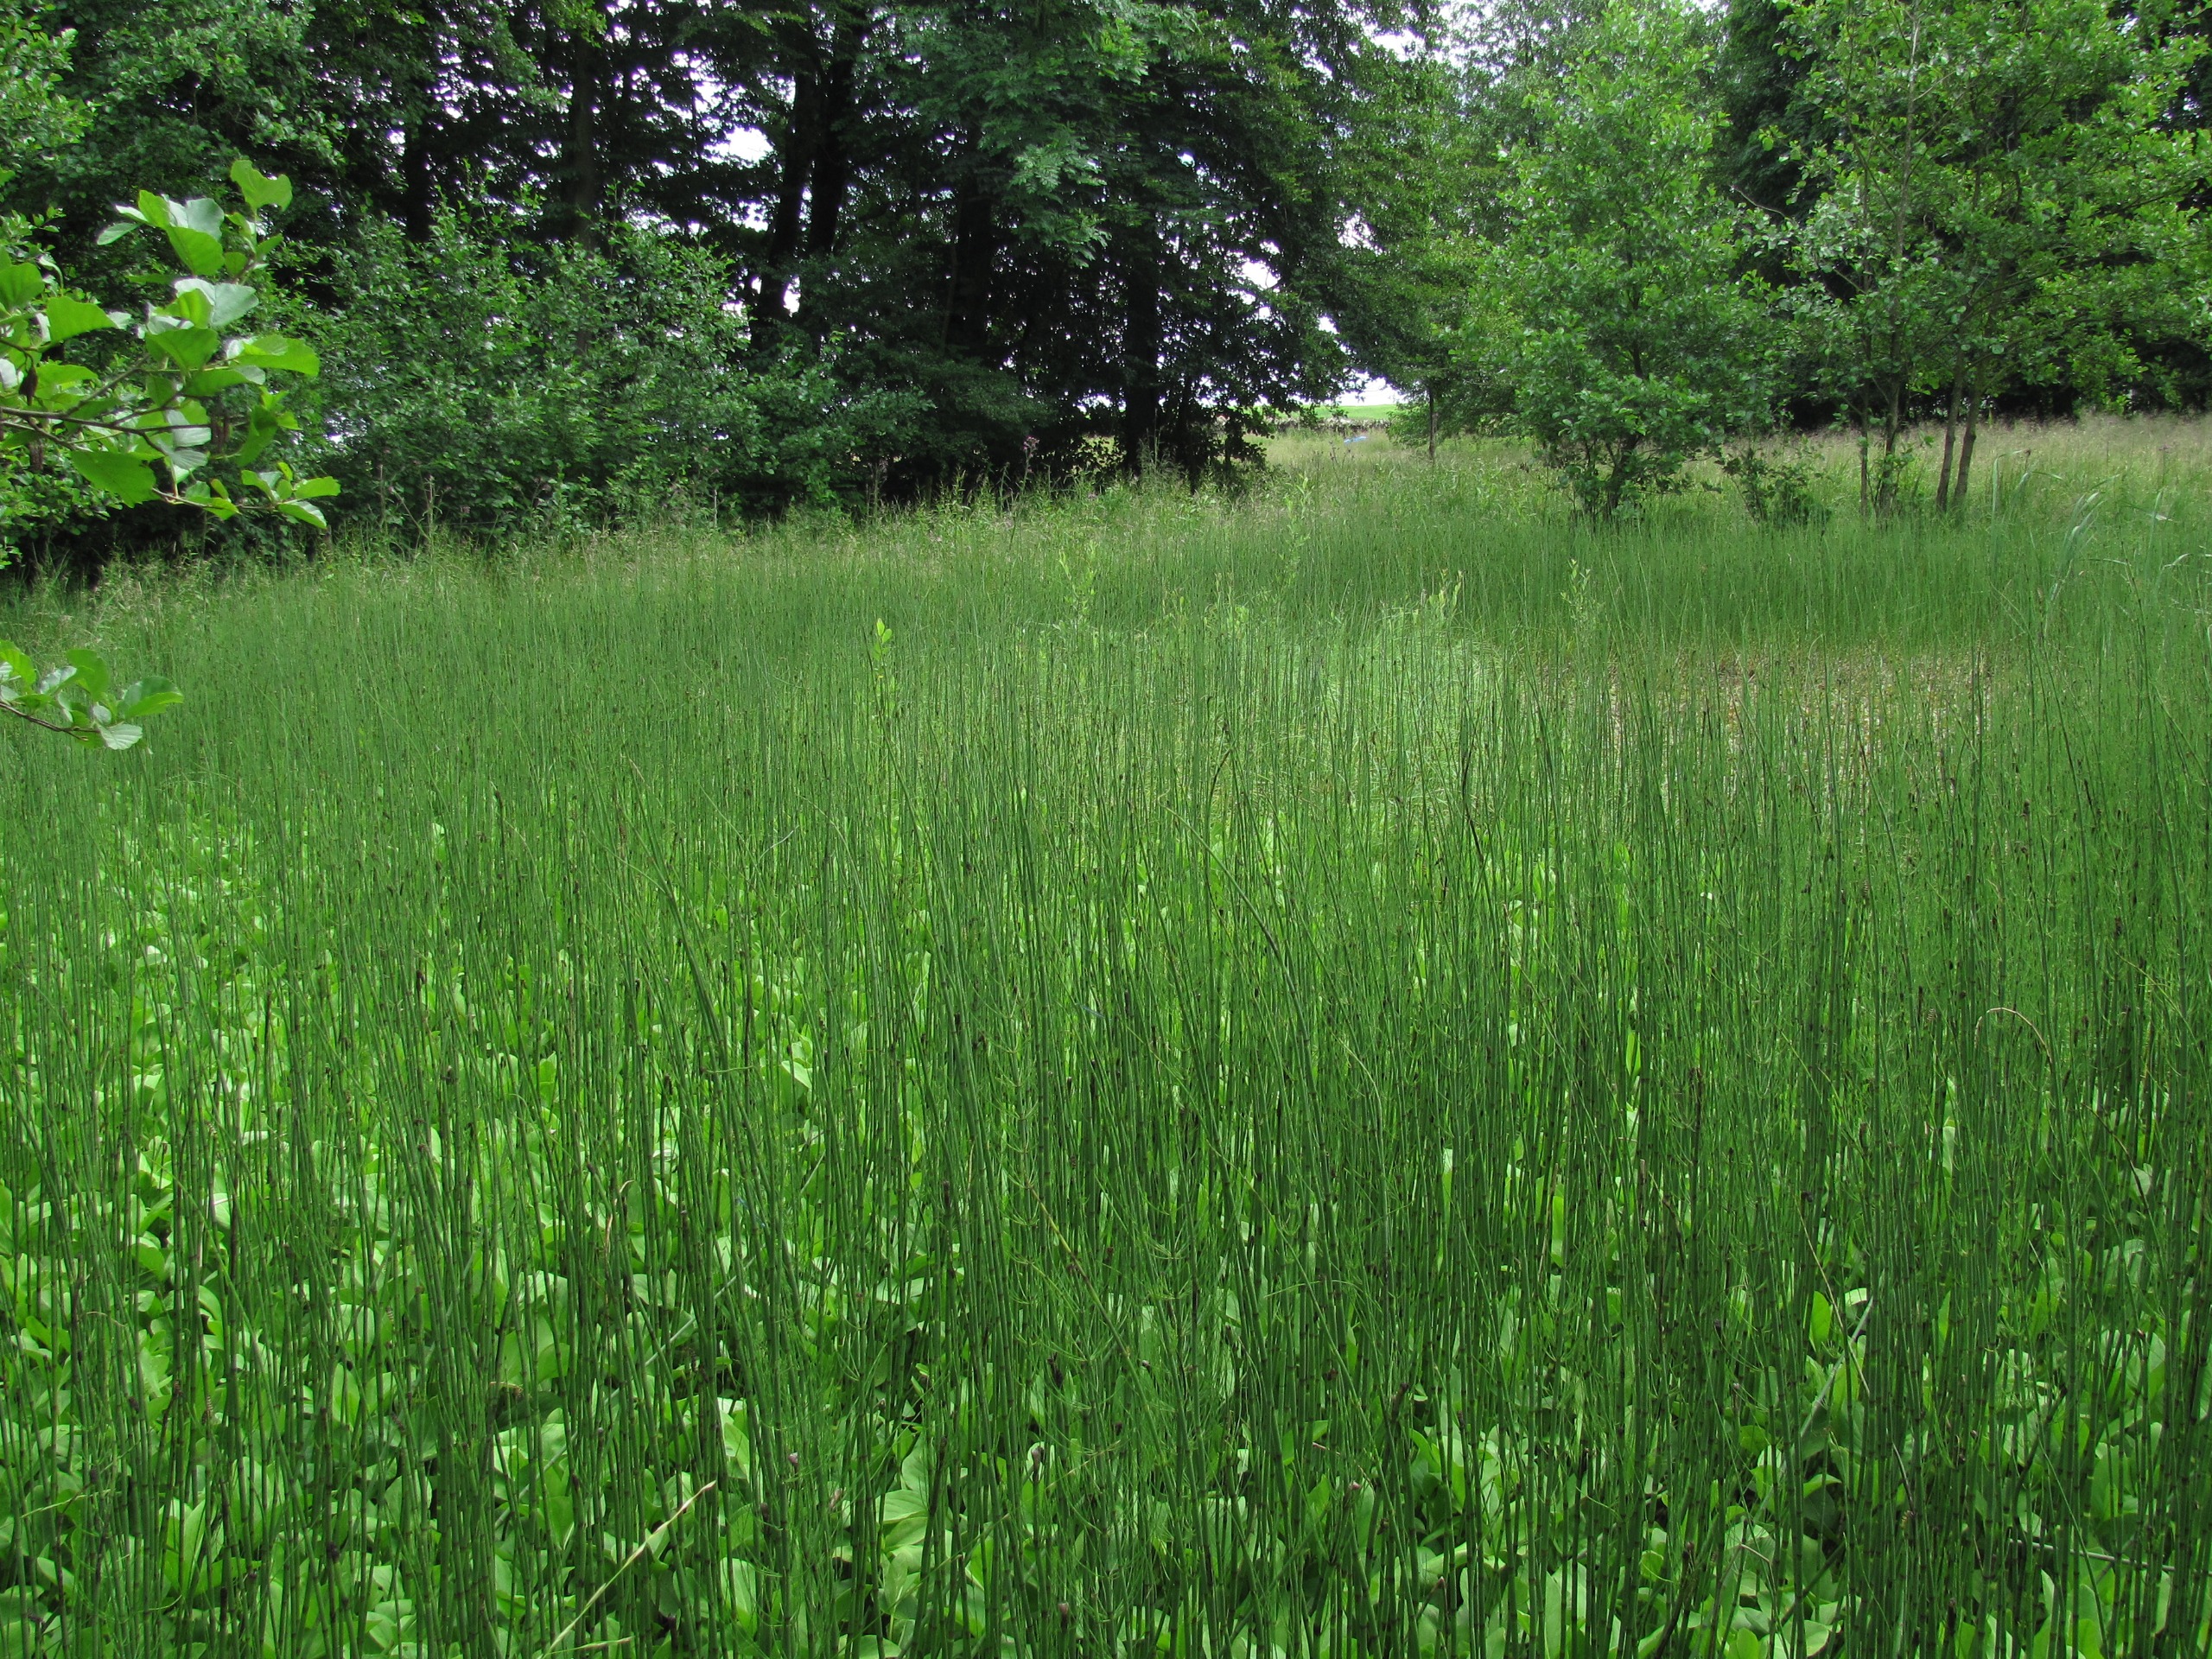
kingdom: Plantae
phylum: Tracheophyta
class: Polypodiopsida
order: Equisetales
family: Equisetaceae
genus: Equisetum
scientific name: Equisetum fluviatile
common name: Dynd-padderok
